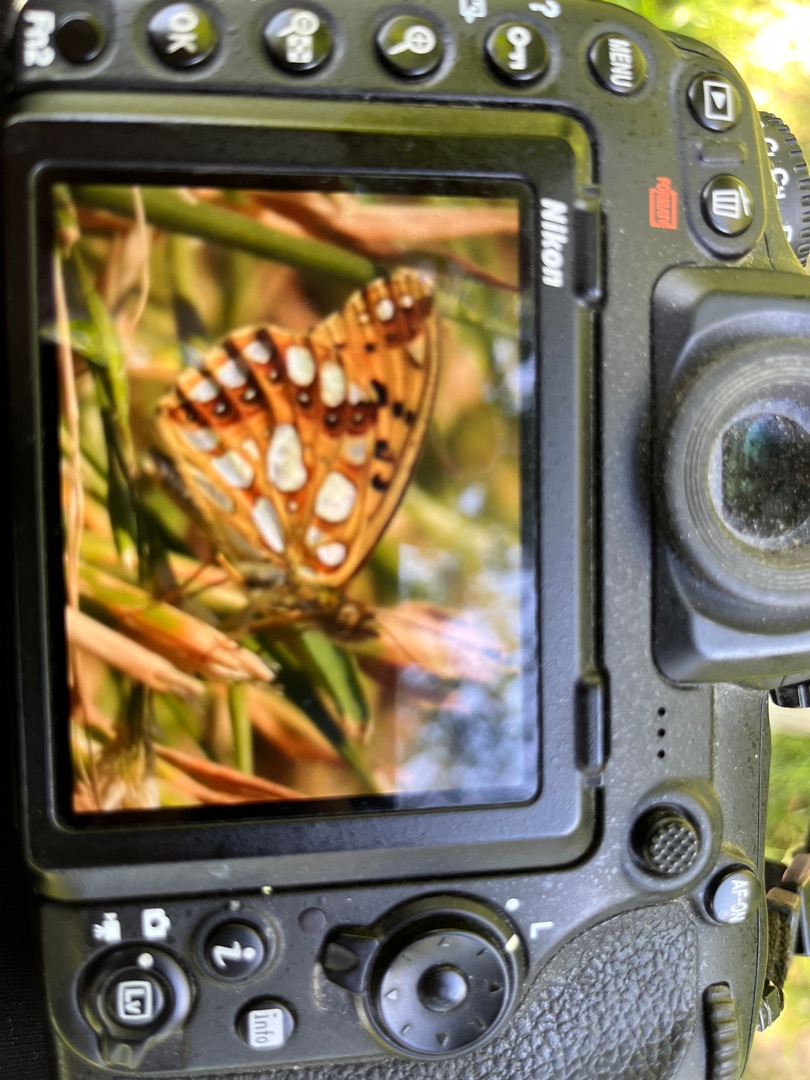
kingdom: Animalia
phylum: Arthropoda
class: Insecta
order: Lepidoptera
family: Nymphalidae
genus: Issoria
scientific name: Issoria lathonia
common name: Storplettet perlemorsommerfugl
